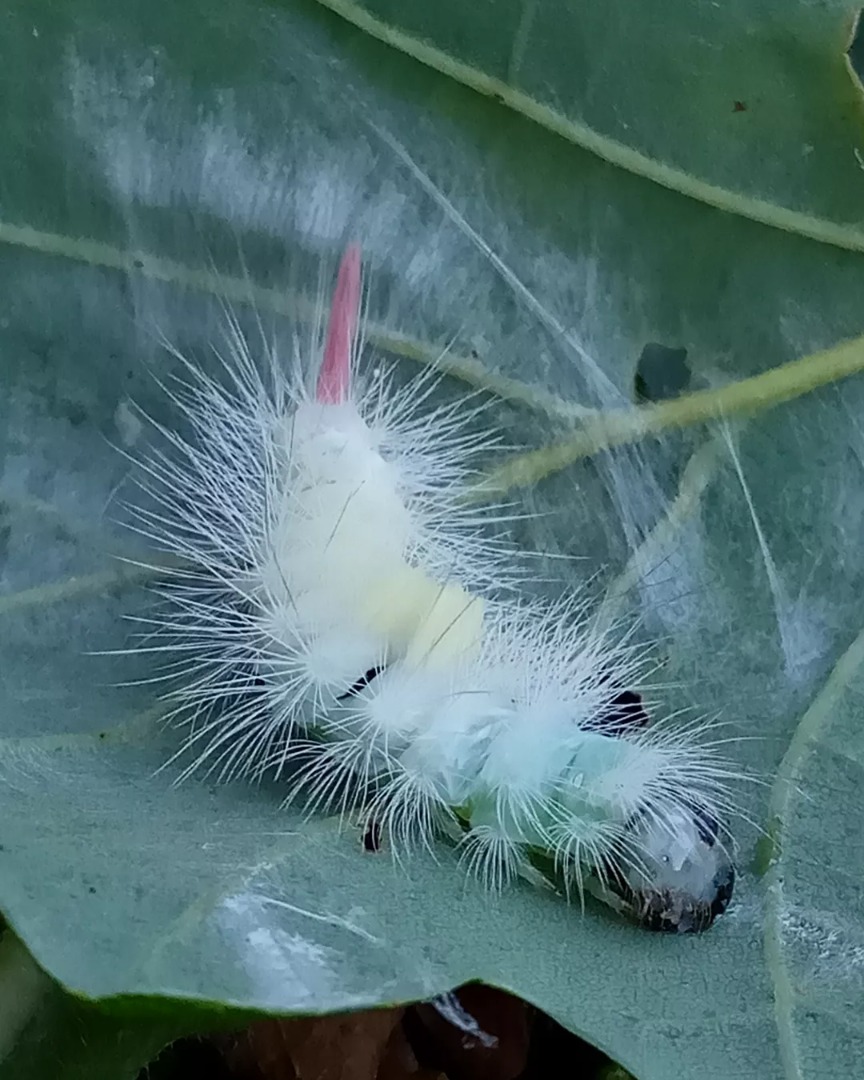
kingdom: Animalia
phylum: Arthropoda
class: Insecta
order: Lepidoptera
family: Erebidae
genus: Calliteara
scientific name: Calliteara pudibunda
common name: Bøgenonne
